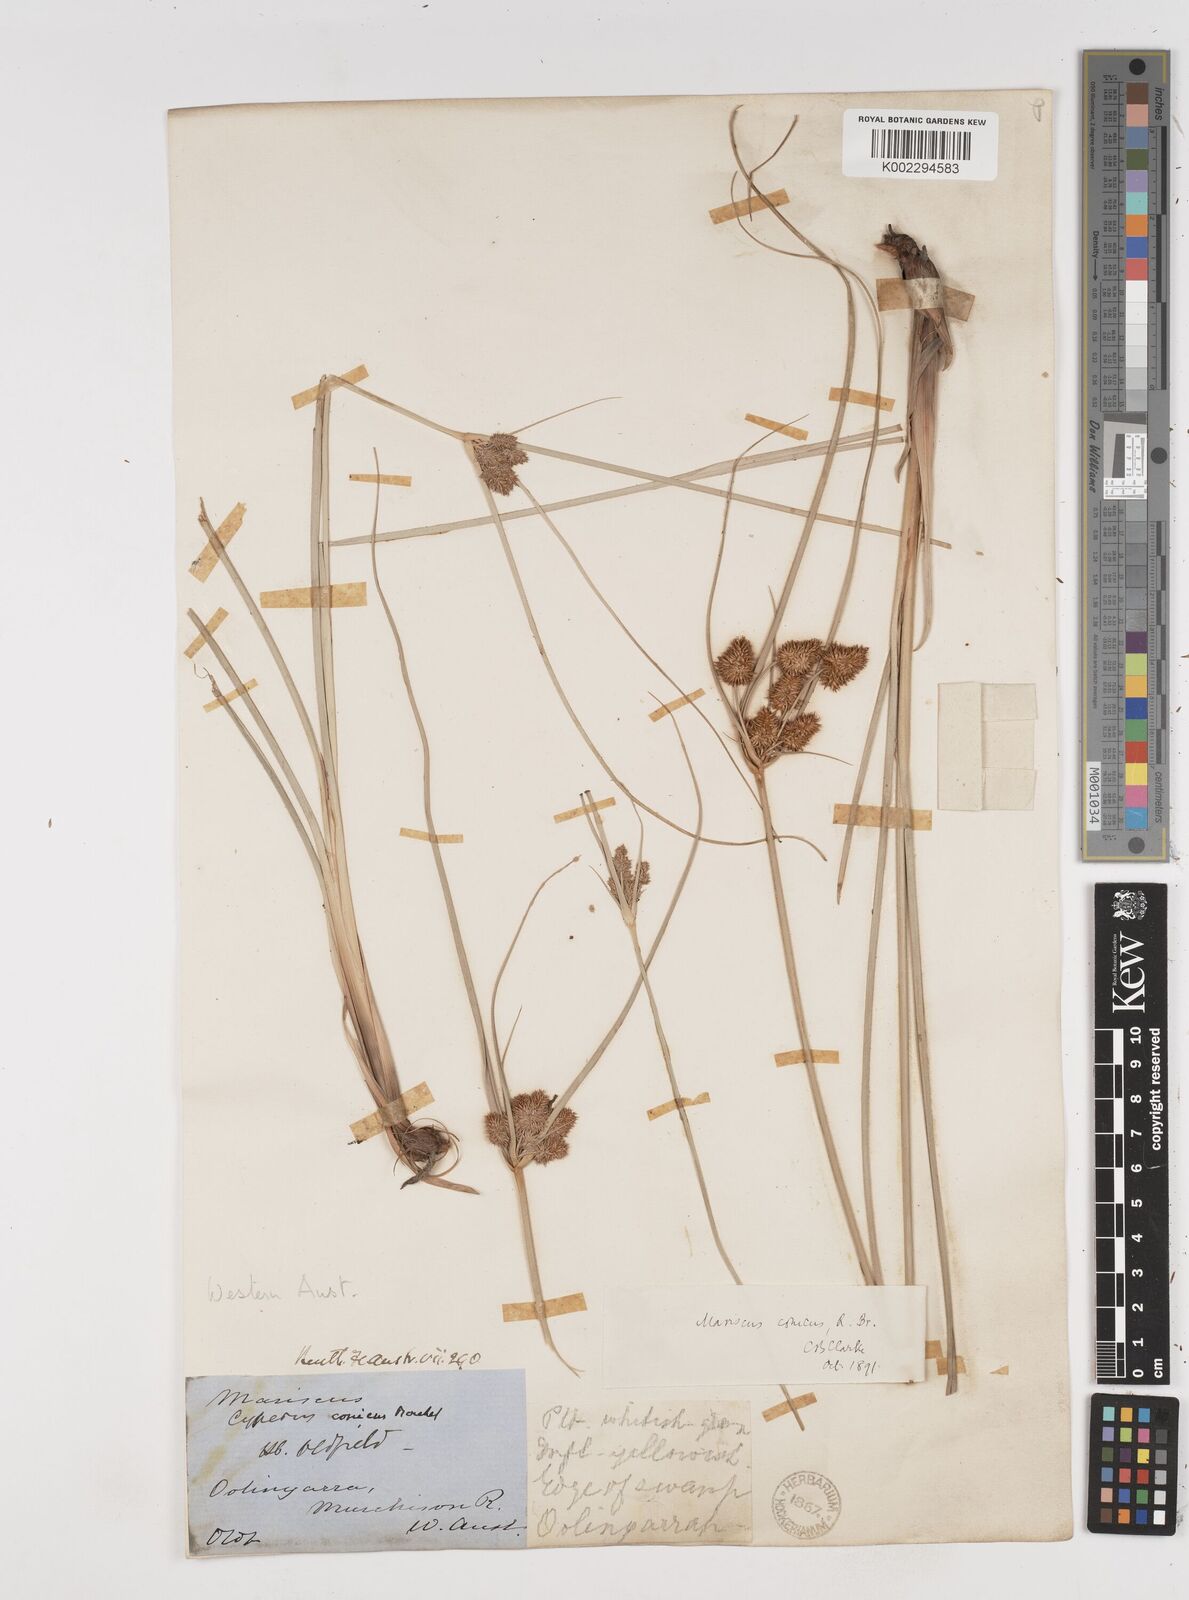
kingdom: Plantae
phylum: Tracheophyta
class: Liliopsida
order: Poales
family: Cyperaceae
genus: Cyperus
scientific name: Cyperus conicus
